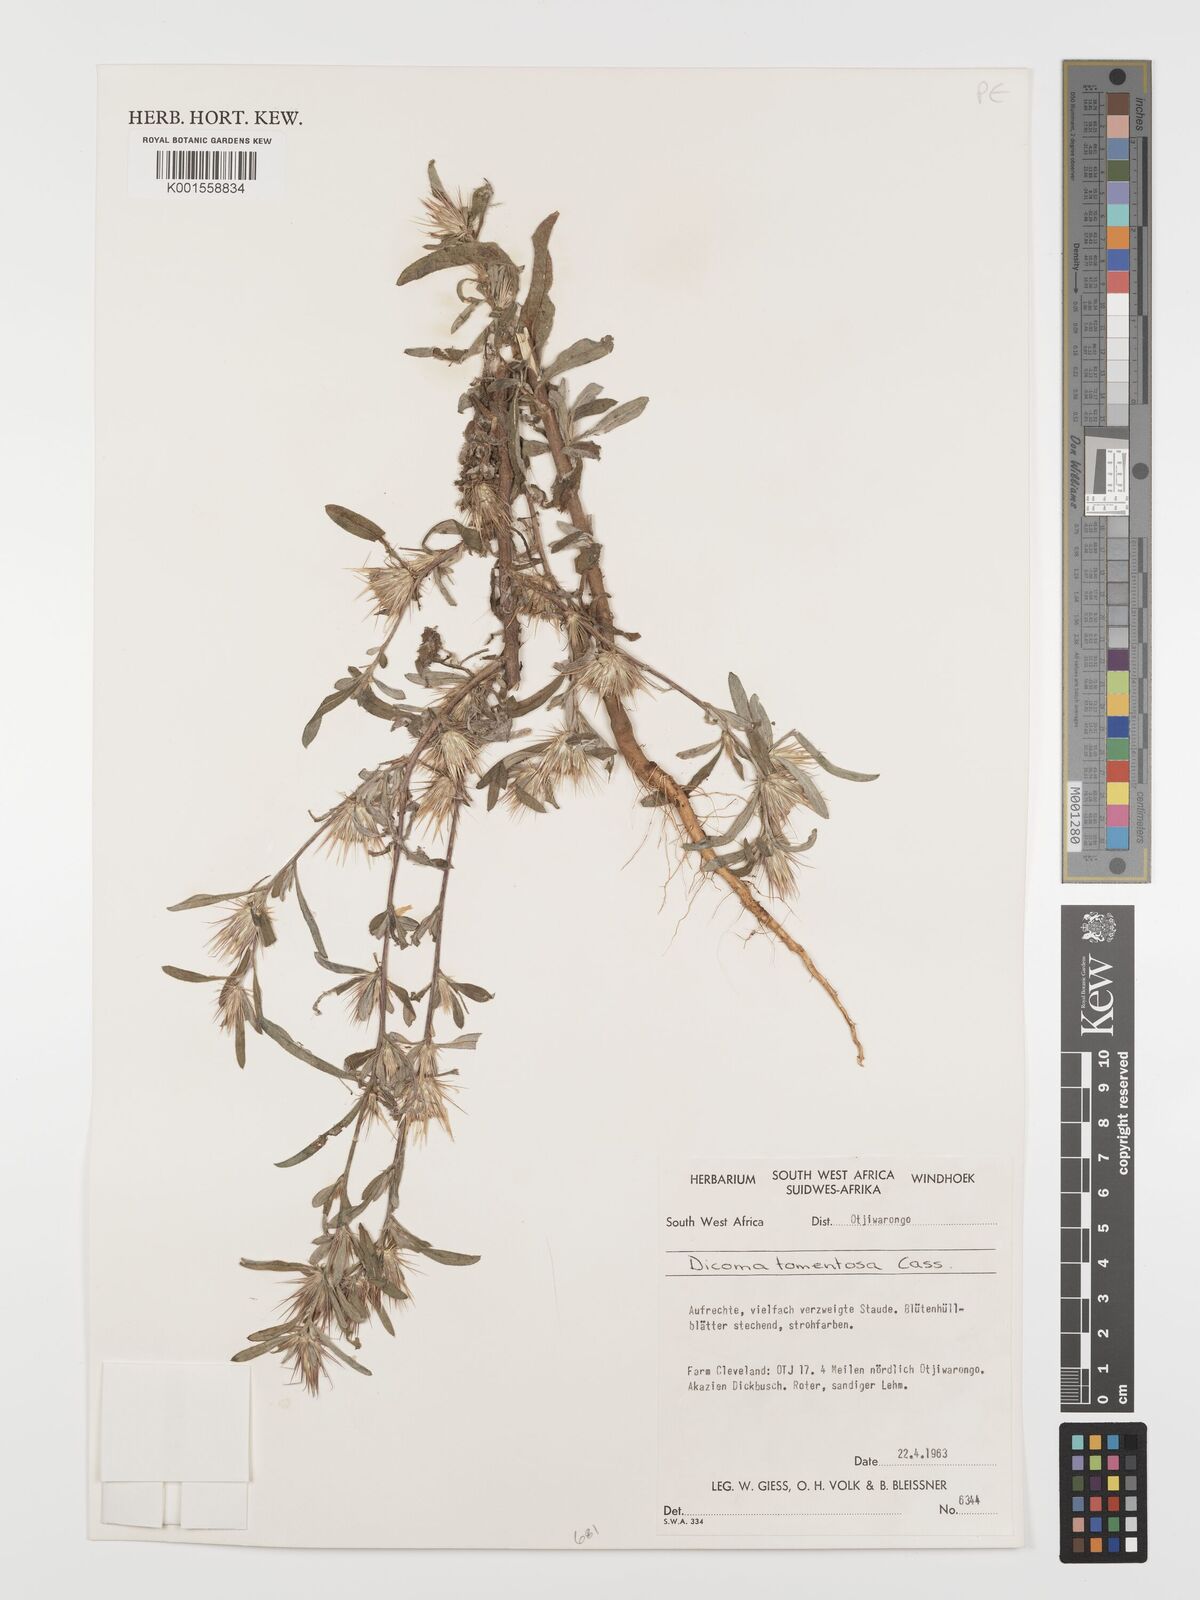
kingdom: Plantae
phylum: Tracheophyta
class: Magnoliopsida
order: Asterales
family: Asteraceae
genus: Dicoma
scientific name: Dicoma tomentosa
